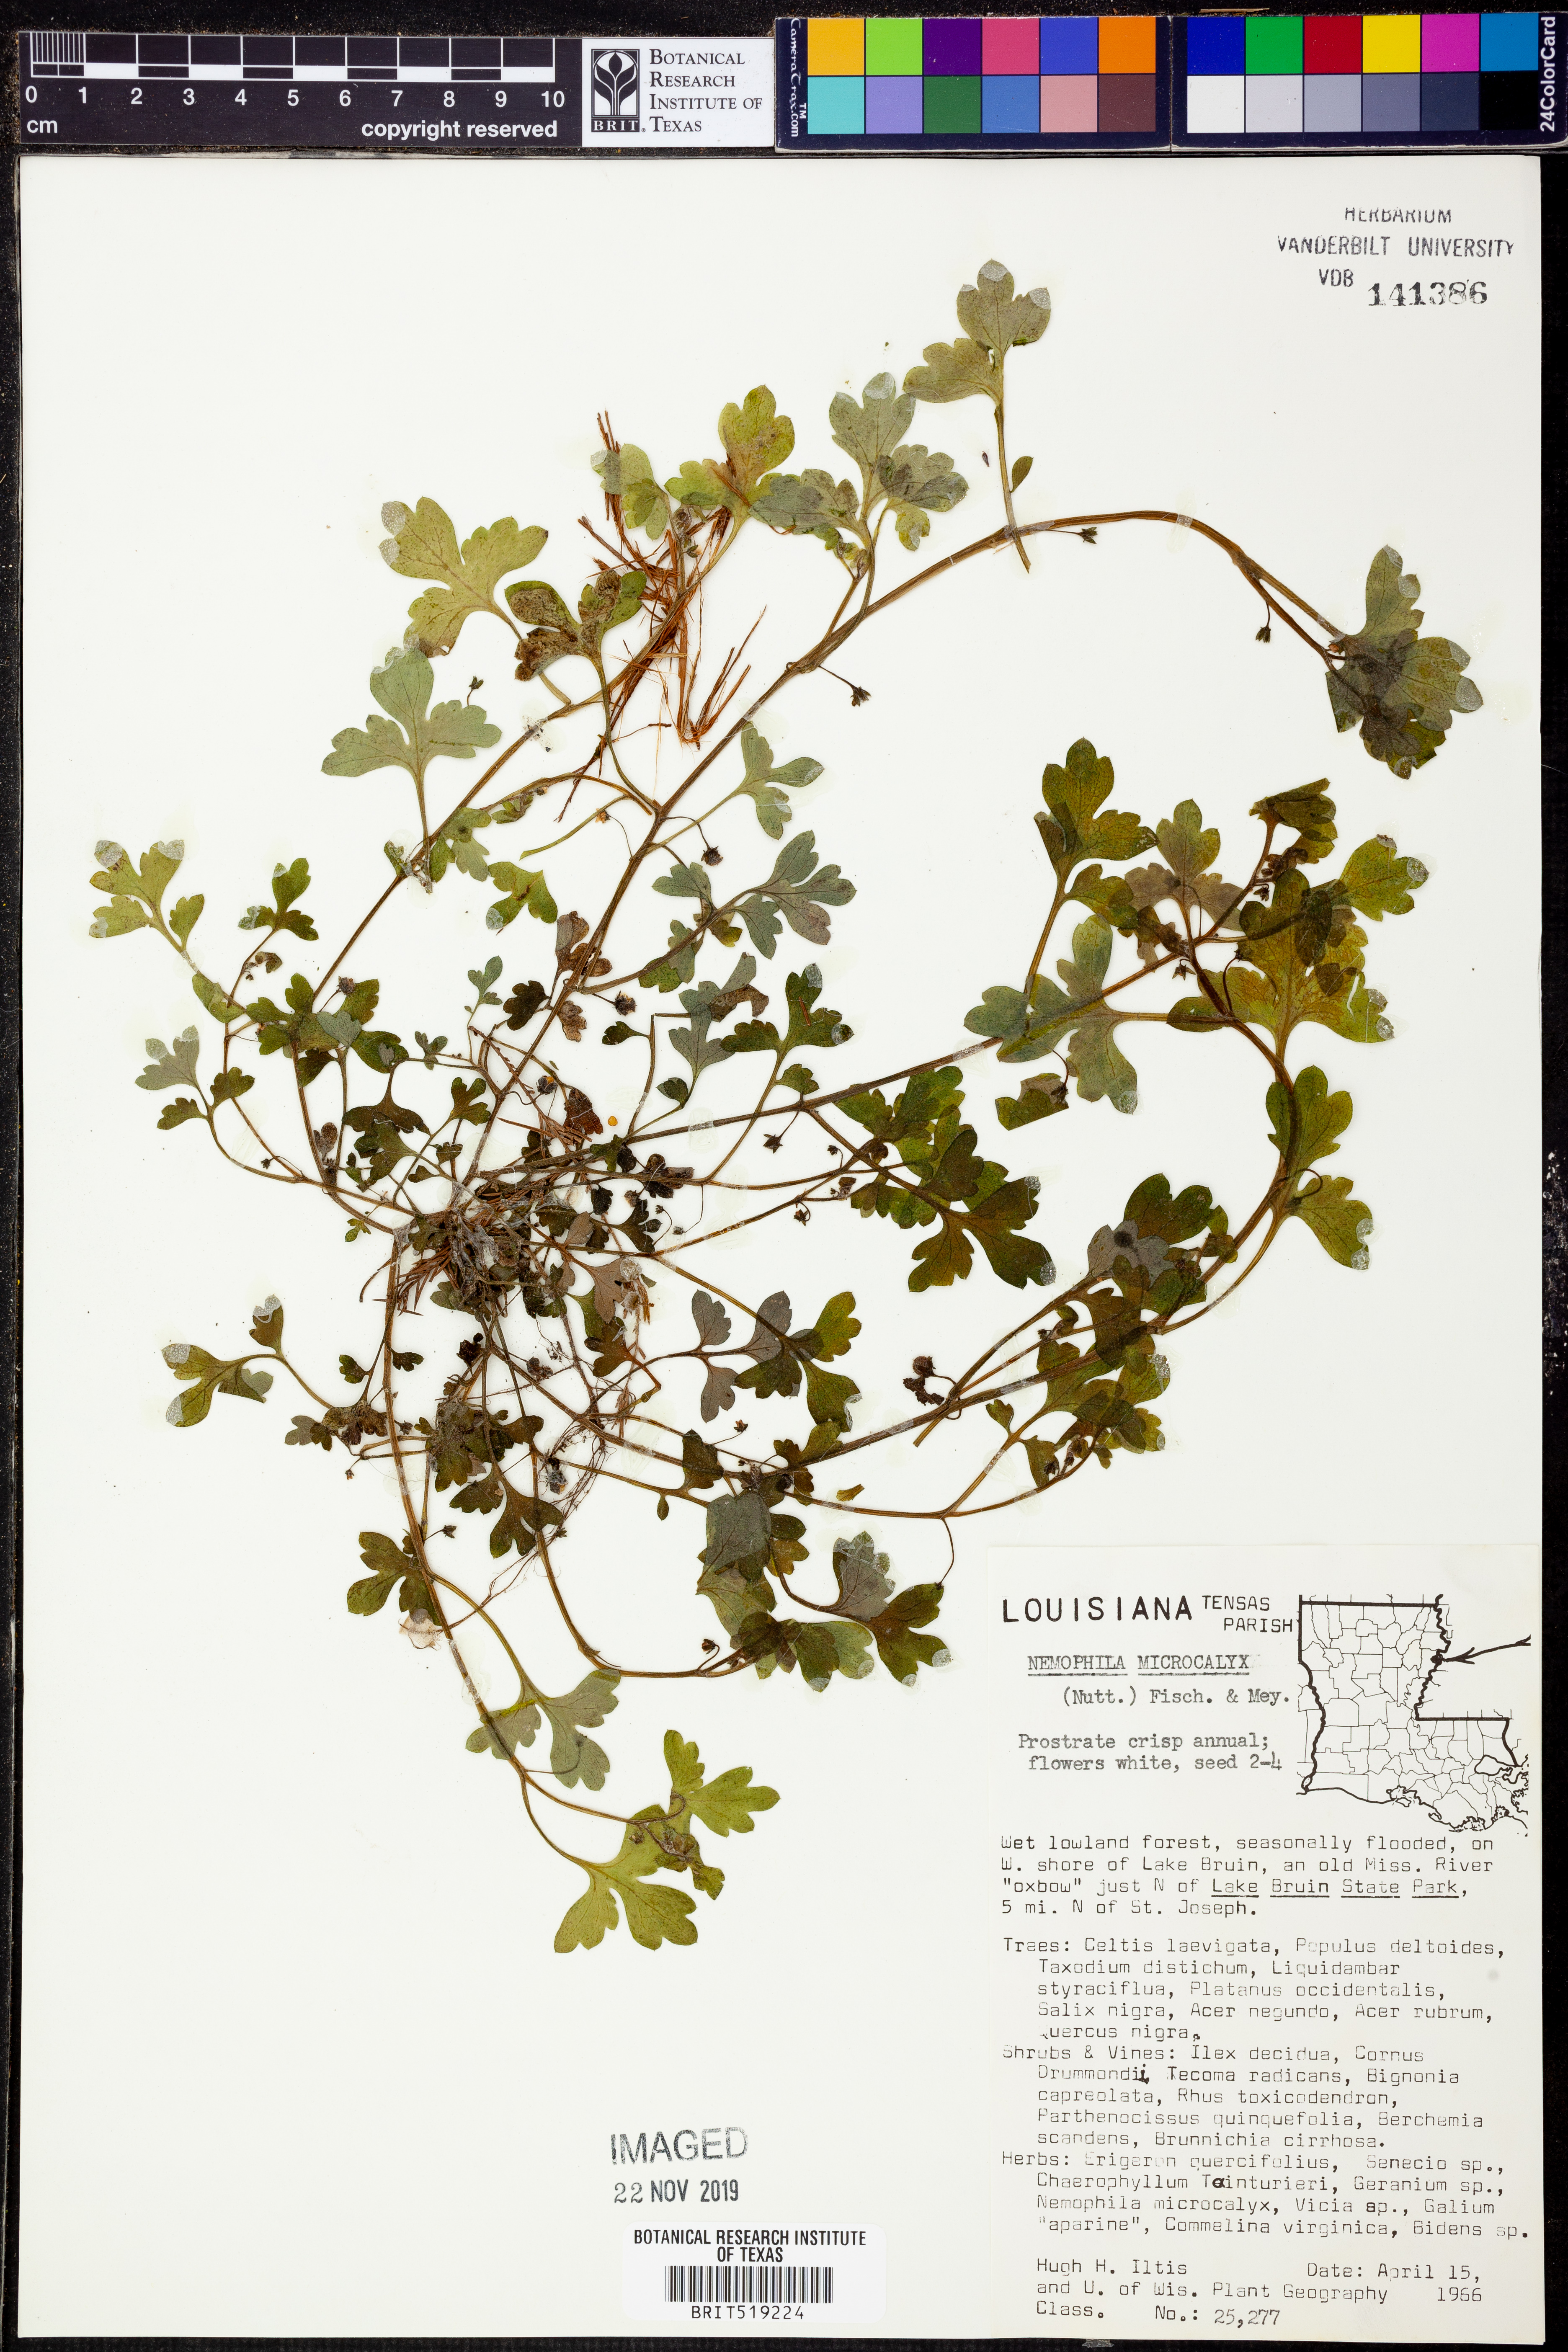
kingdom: Plantae
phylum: Tracheophyta
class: Magnoliopsida
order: Boraginales
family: Hydrophyllaceae
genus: Nemophila
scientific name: Nemophila aphylla
